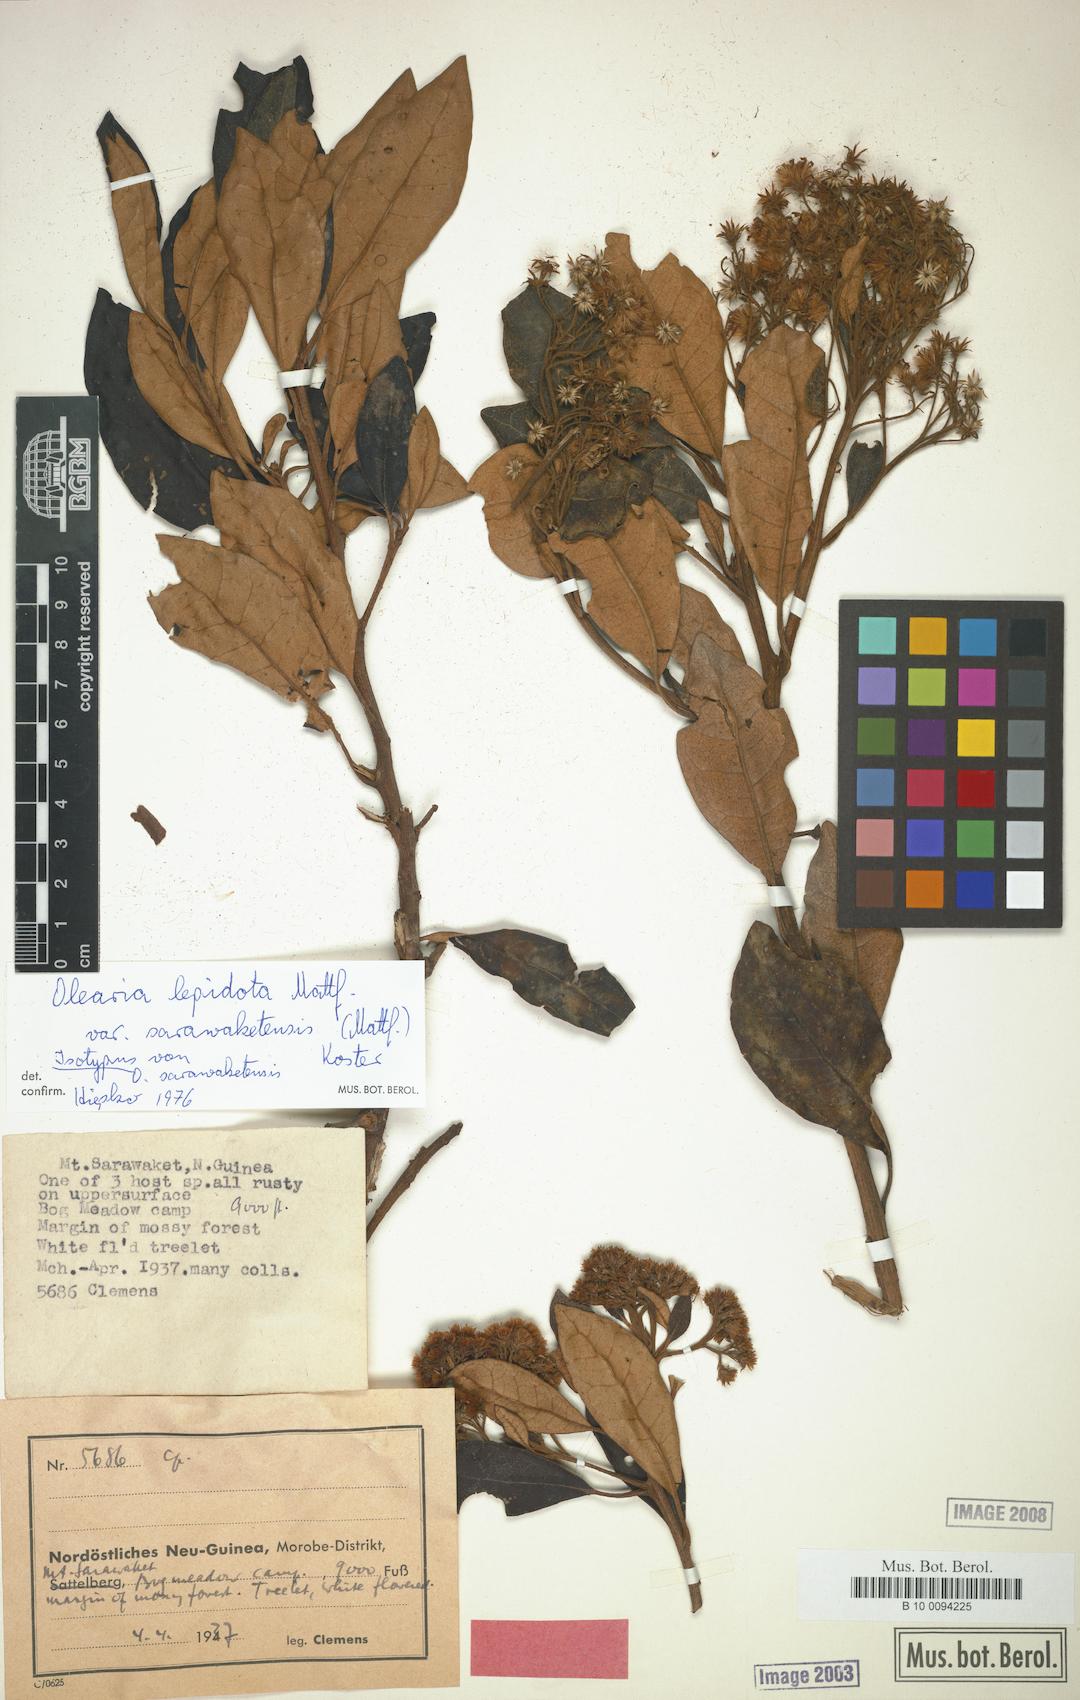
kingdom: Plantae
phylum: Tracheophyta
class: Magnoliopsida
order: Asterales
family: Asteraceae
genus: Olearia
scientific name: Olearia lepidota
